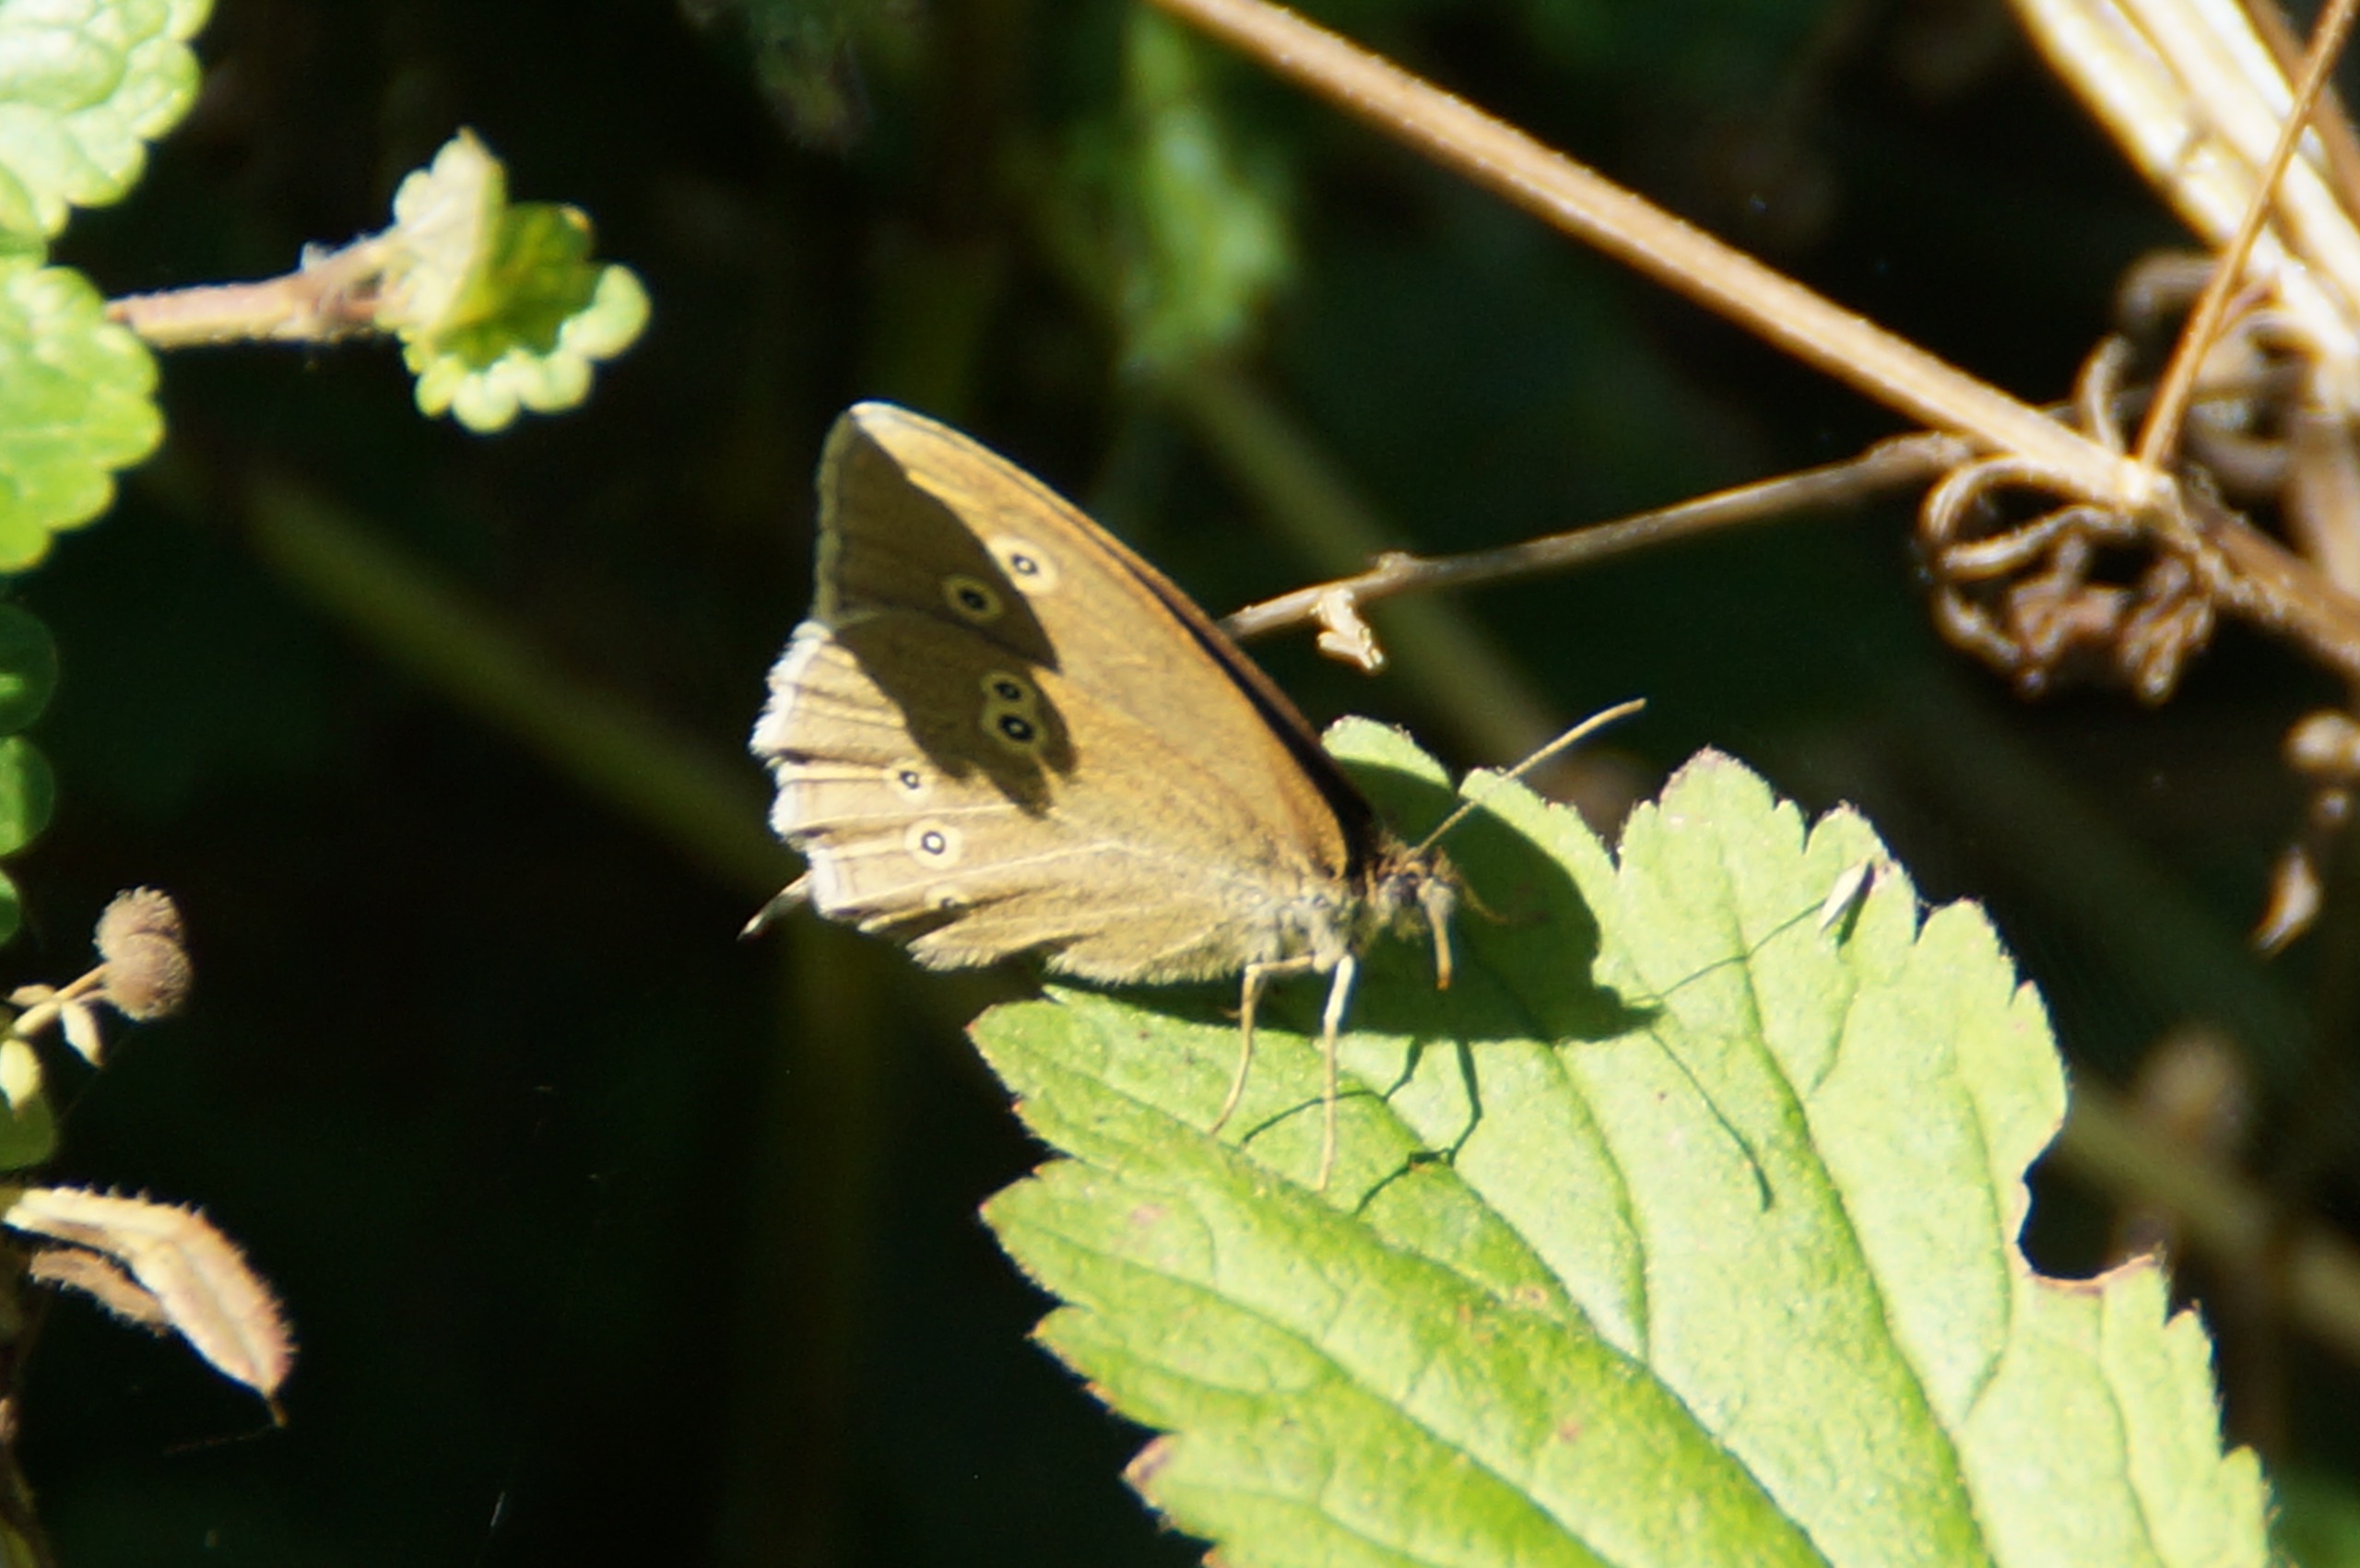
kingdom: Animalia
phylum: Arthropoda
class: Insecta
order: Lepidoptera
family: Nymphalidae
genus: Aphantopus
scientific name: Aphantopus hyperantus
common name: Engrandøje
